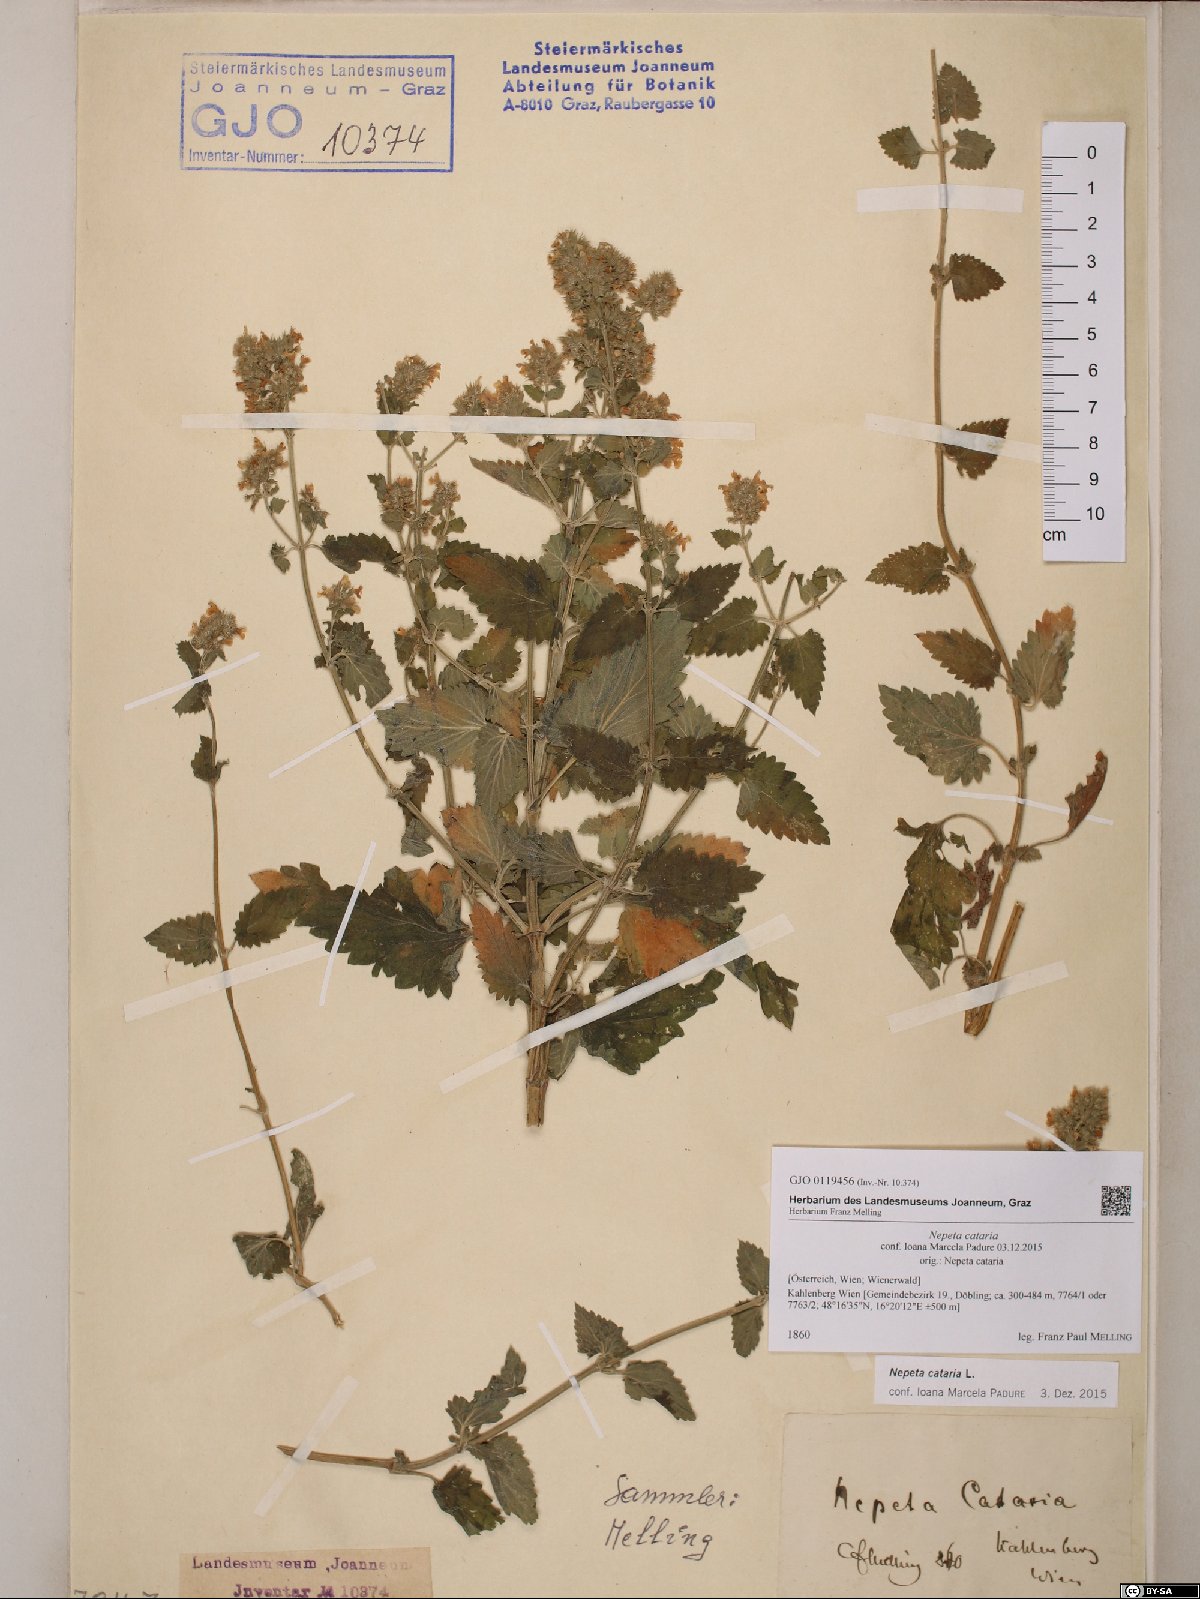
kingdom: Plantae
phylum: Tracheophyta
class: Magnoliopsida
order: Lamiales
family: Lamiaceae
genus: Nepeta
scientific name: Nepeta cataria
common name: Catnip
